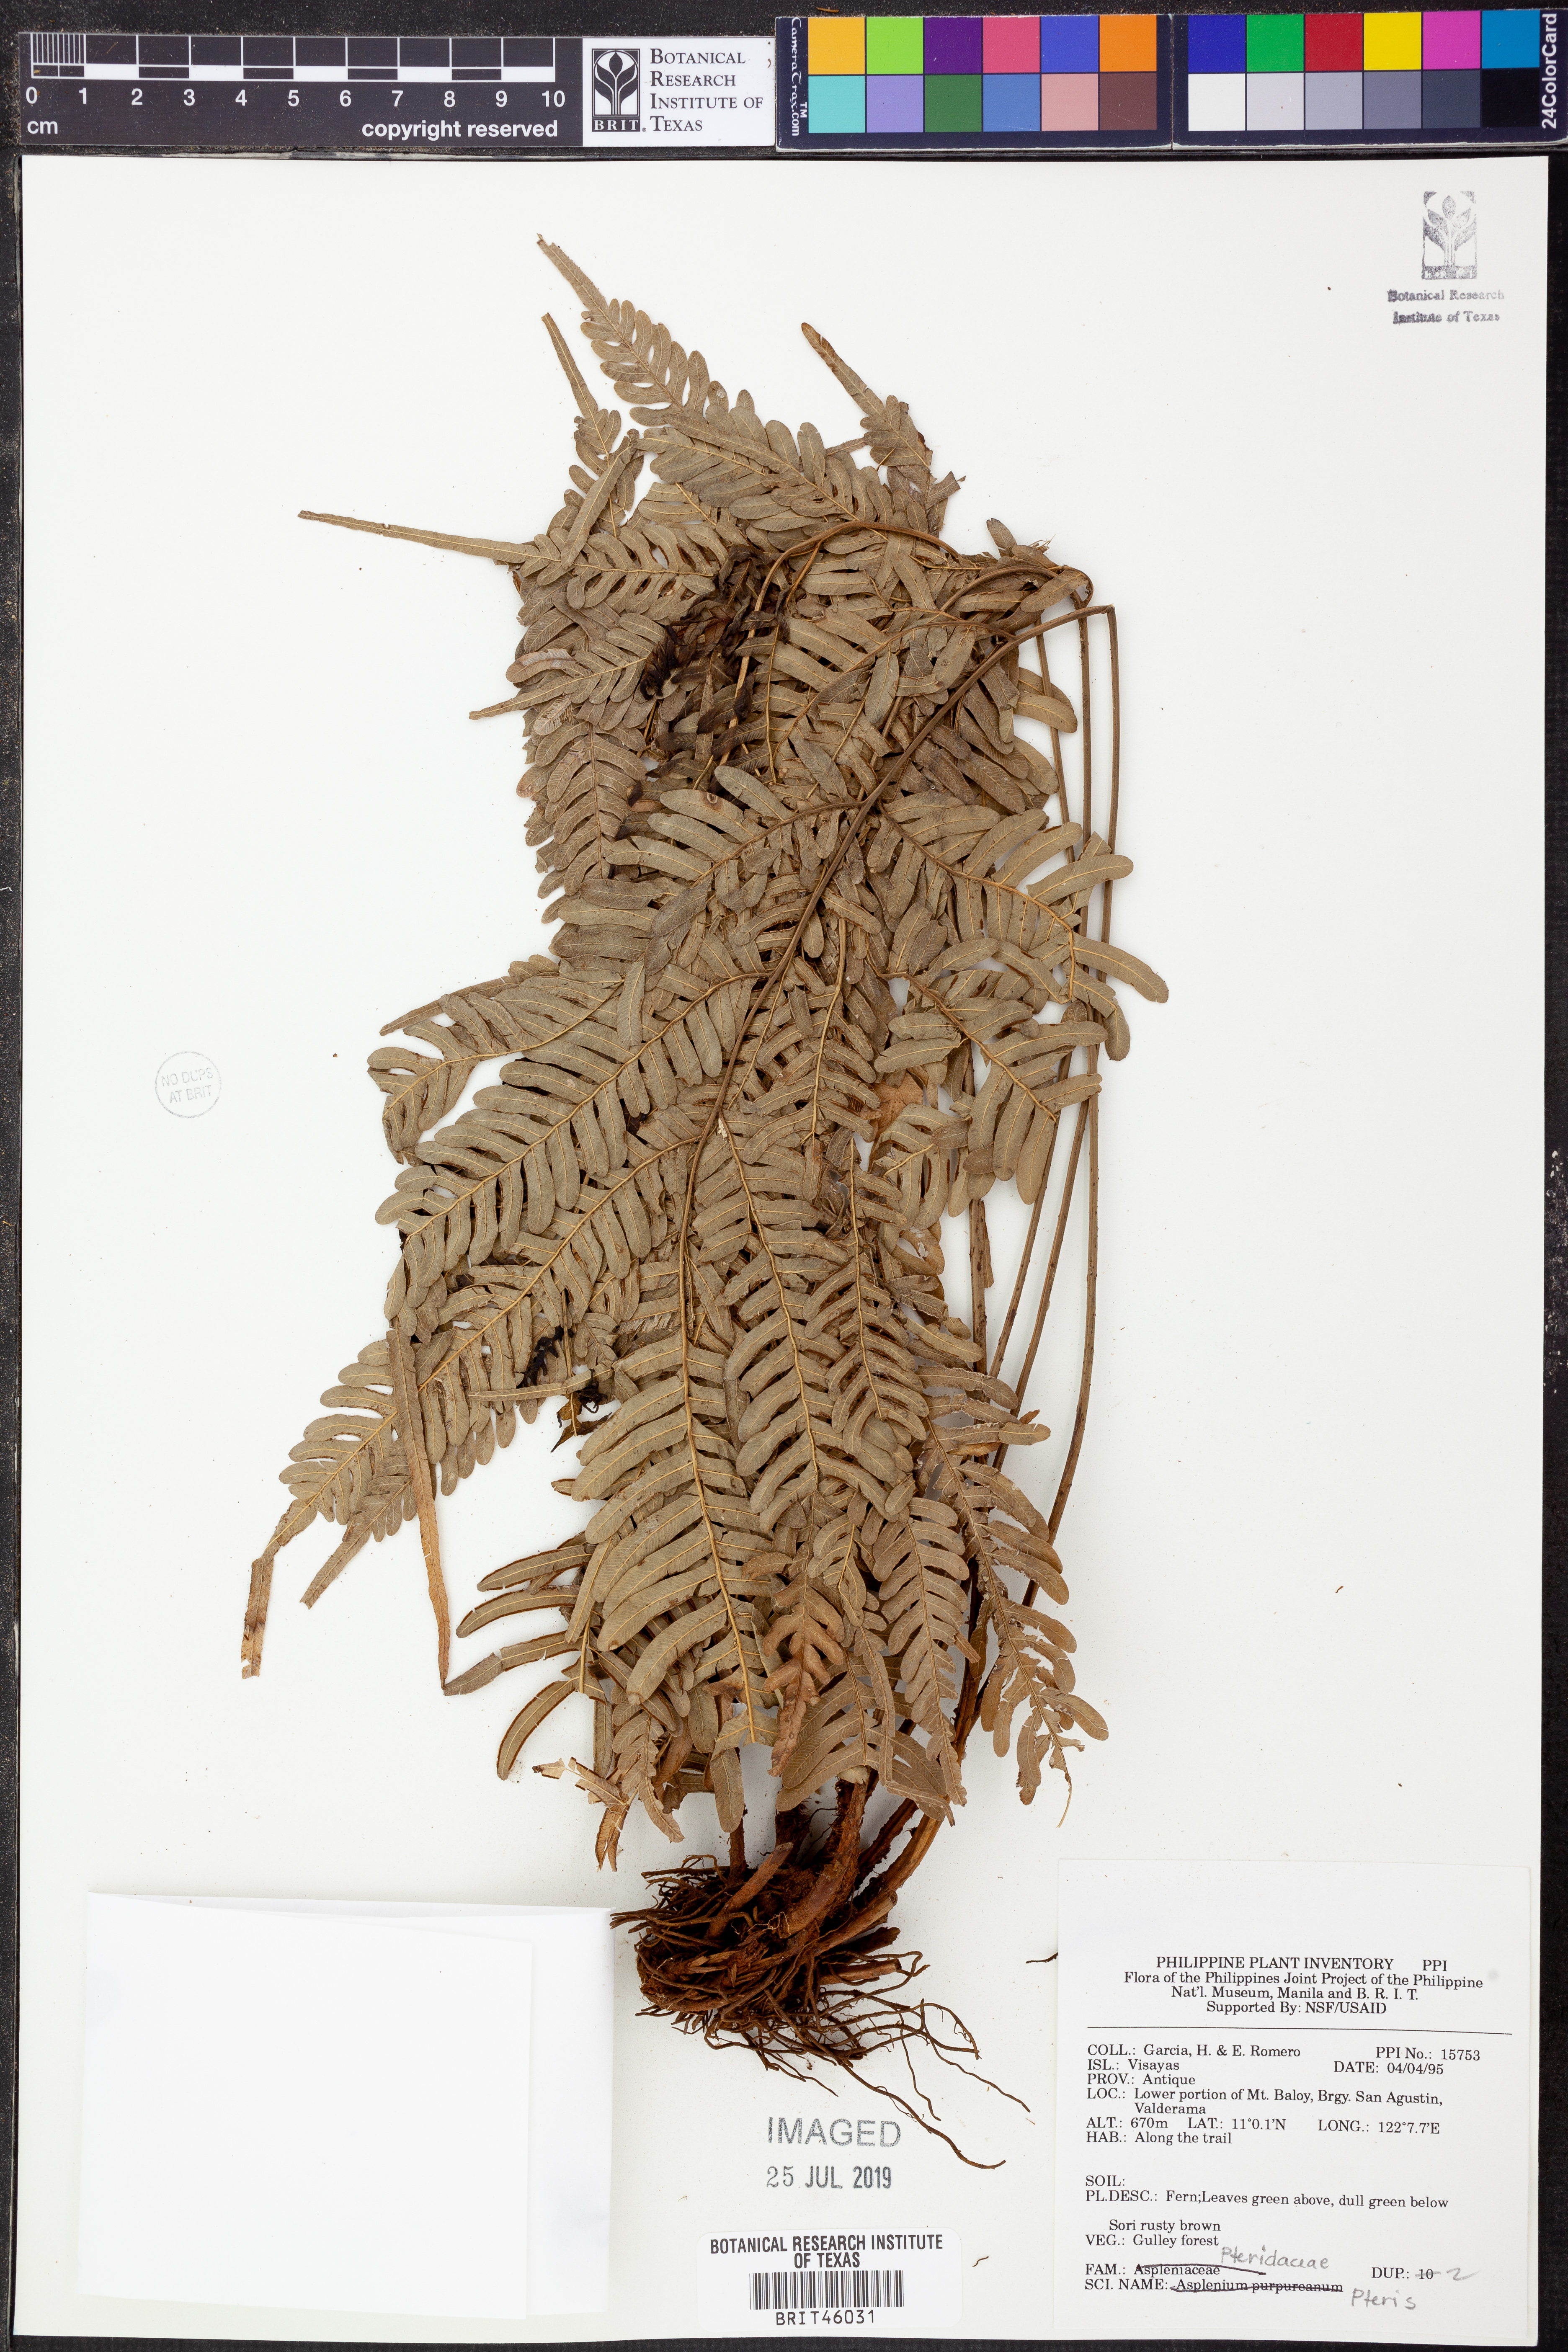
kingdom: Plantae
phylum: Tracheophyta
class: Polypodiopsida
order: Polypodiales
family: Pteridaceae
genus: Pteris
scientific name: Pteris
